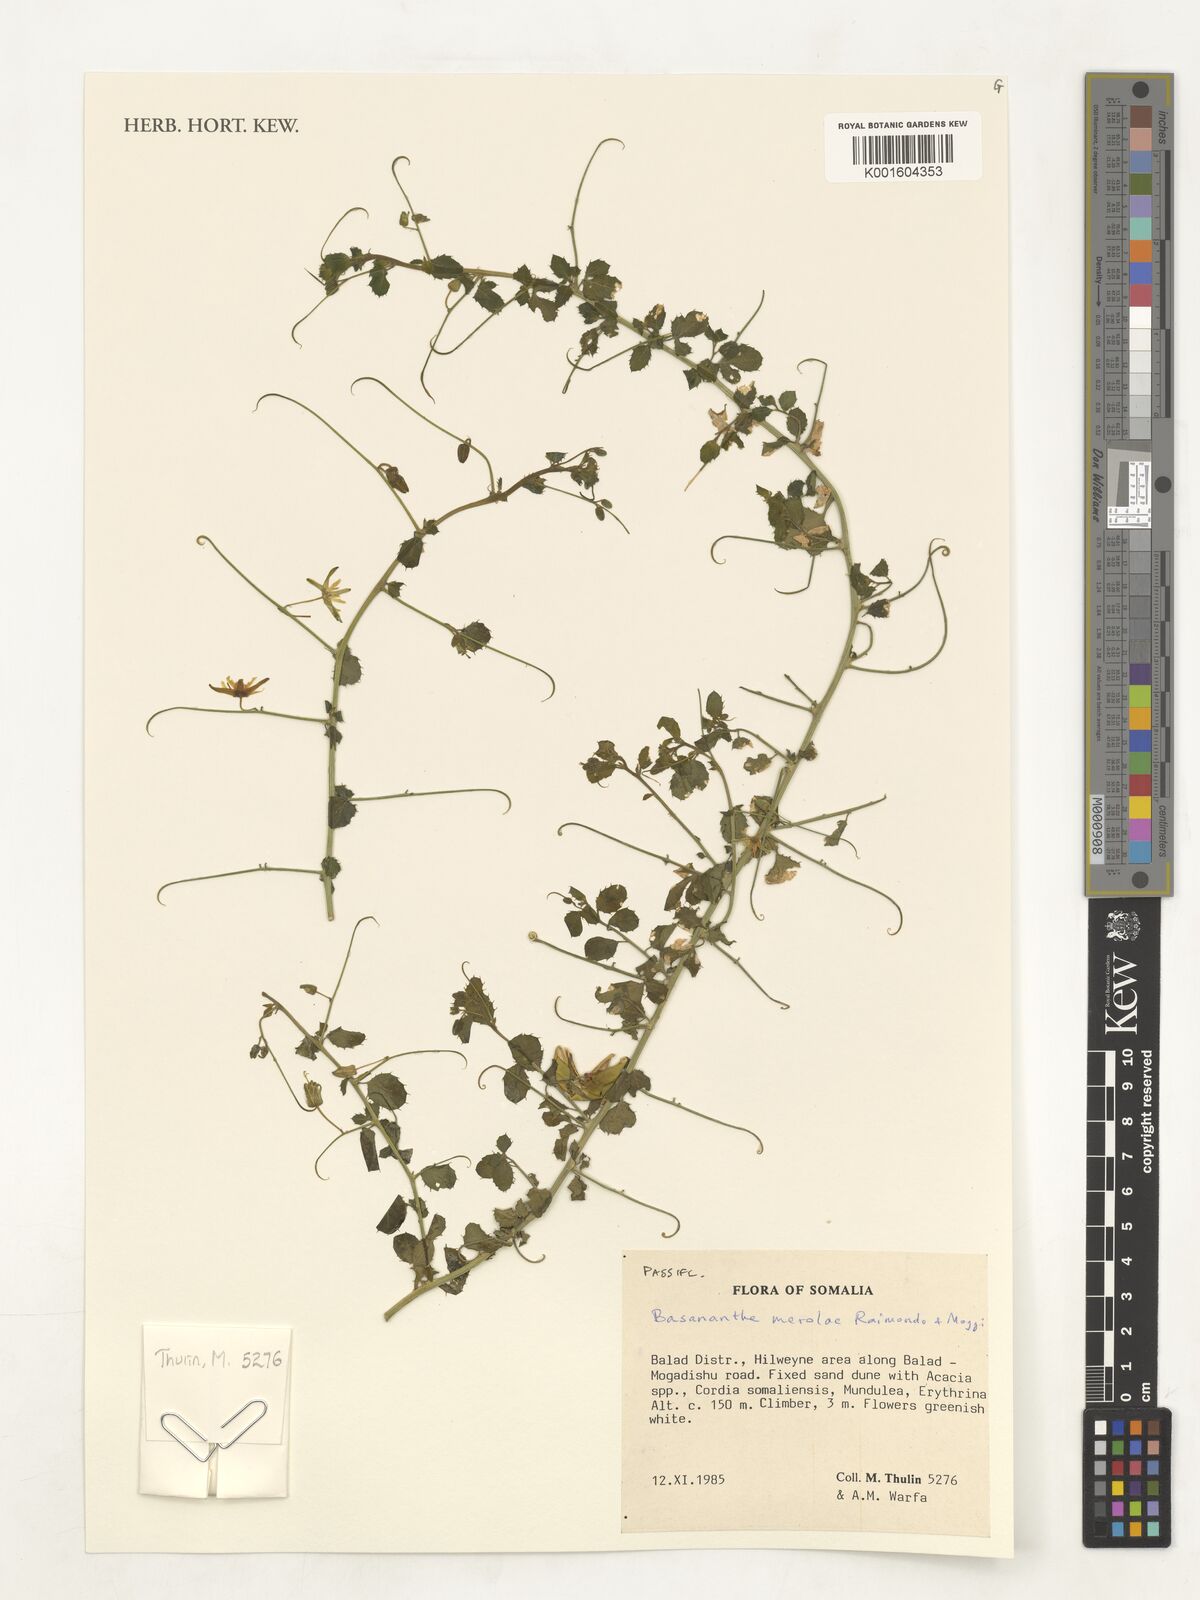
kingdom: Plantae
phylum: Tracheophyta
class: Magnoliopsida
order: Malpighiales
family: Passifloraceae
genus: Basananthe
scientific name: Basananthe merolae
